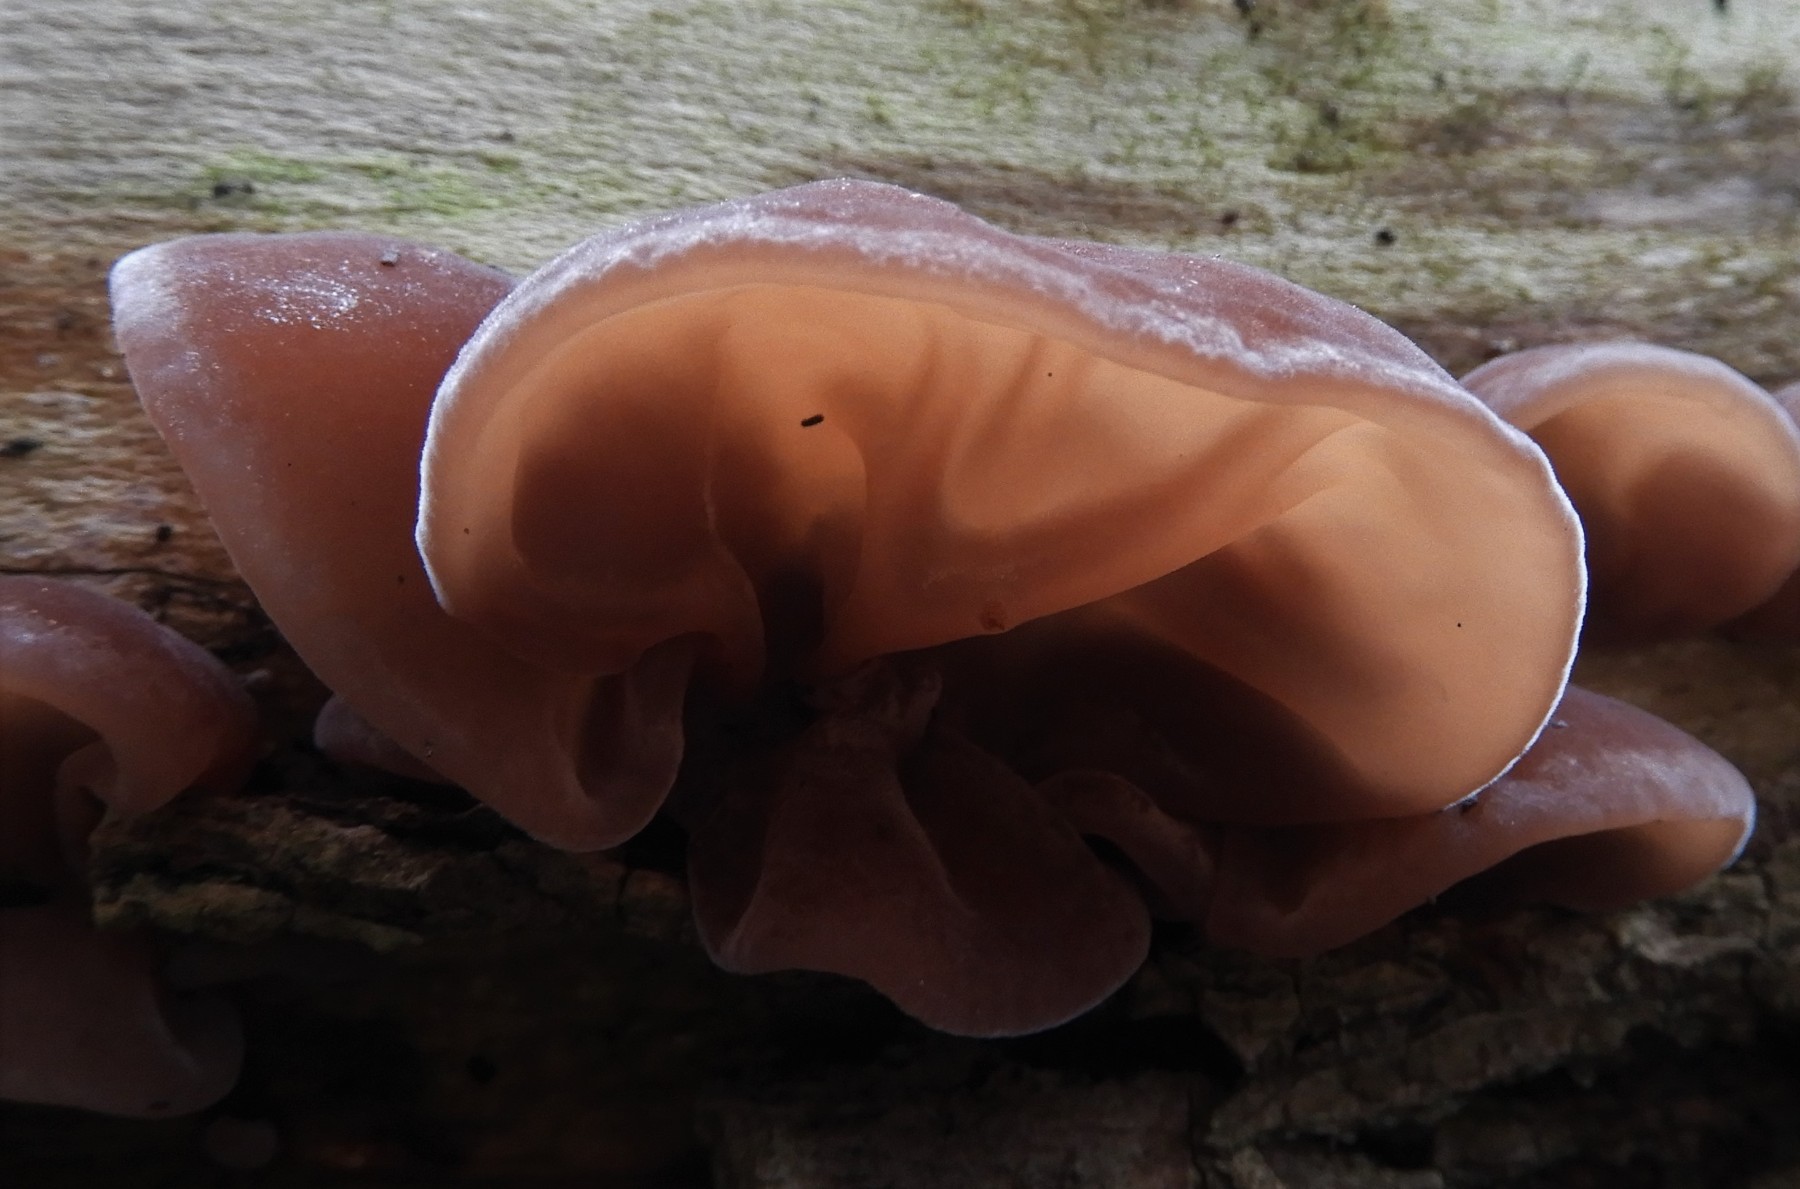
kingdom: Fungi
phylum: Basidiomycota
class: Agaricomycetes
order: Auriculariales
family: Auriculariaceae
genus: Auricularia
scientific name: Auricularia auricula-judae
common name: almindelig judasøre
